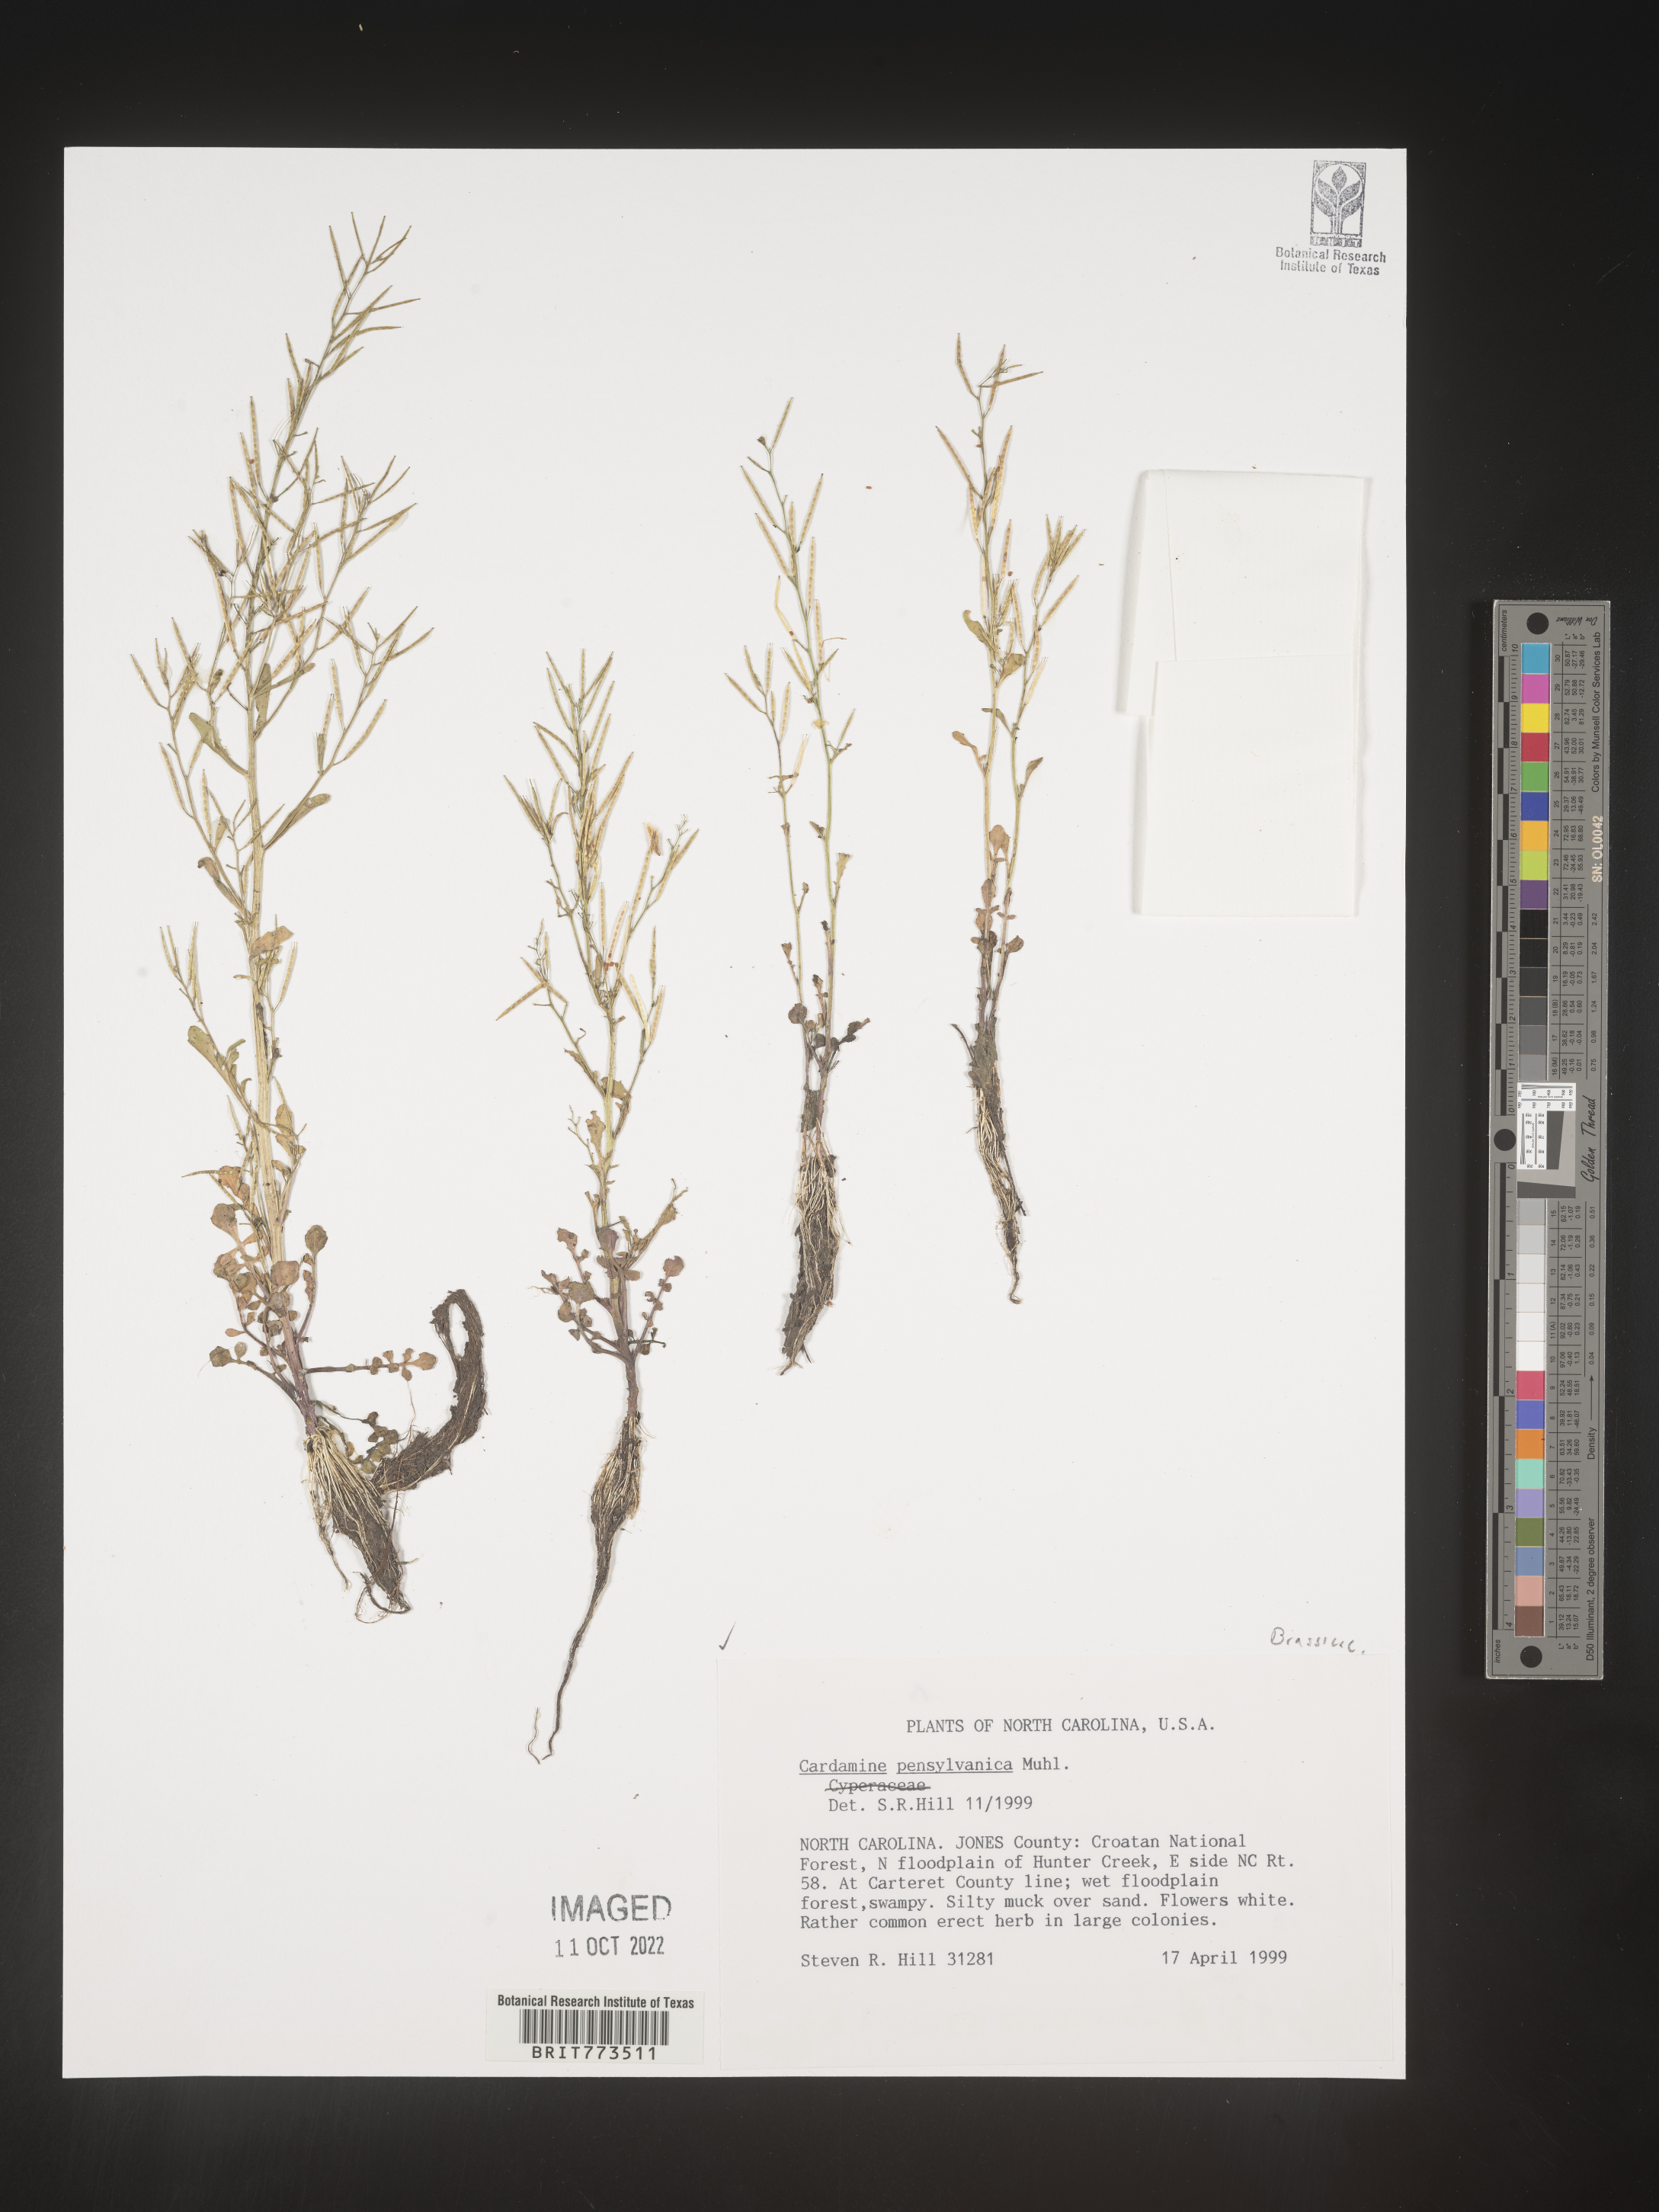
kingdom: Plantae
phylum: Tracheophyta
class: Magnoliopsida
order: Brassicales
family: Brassicaceae
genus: Cardamine
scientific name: Cardamine pensylvanica
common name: Pennsylvania bittercress
